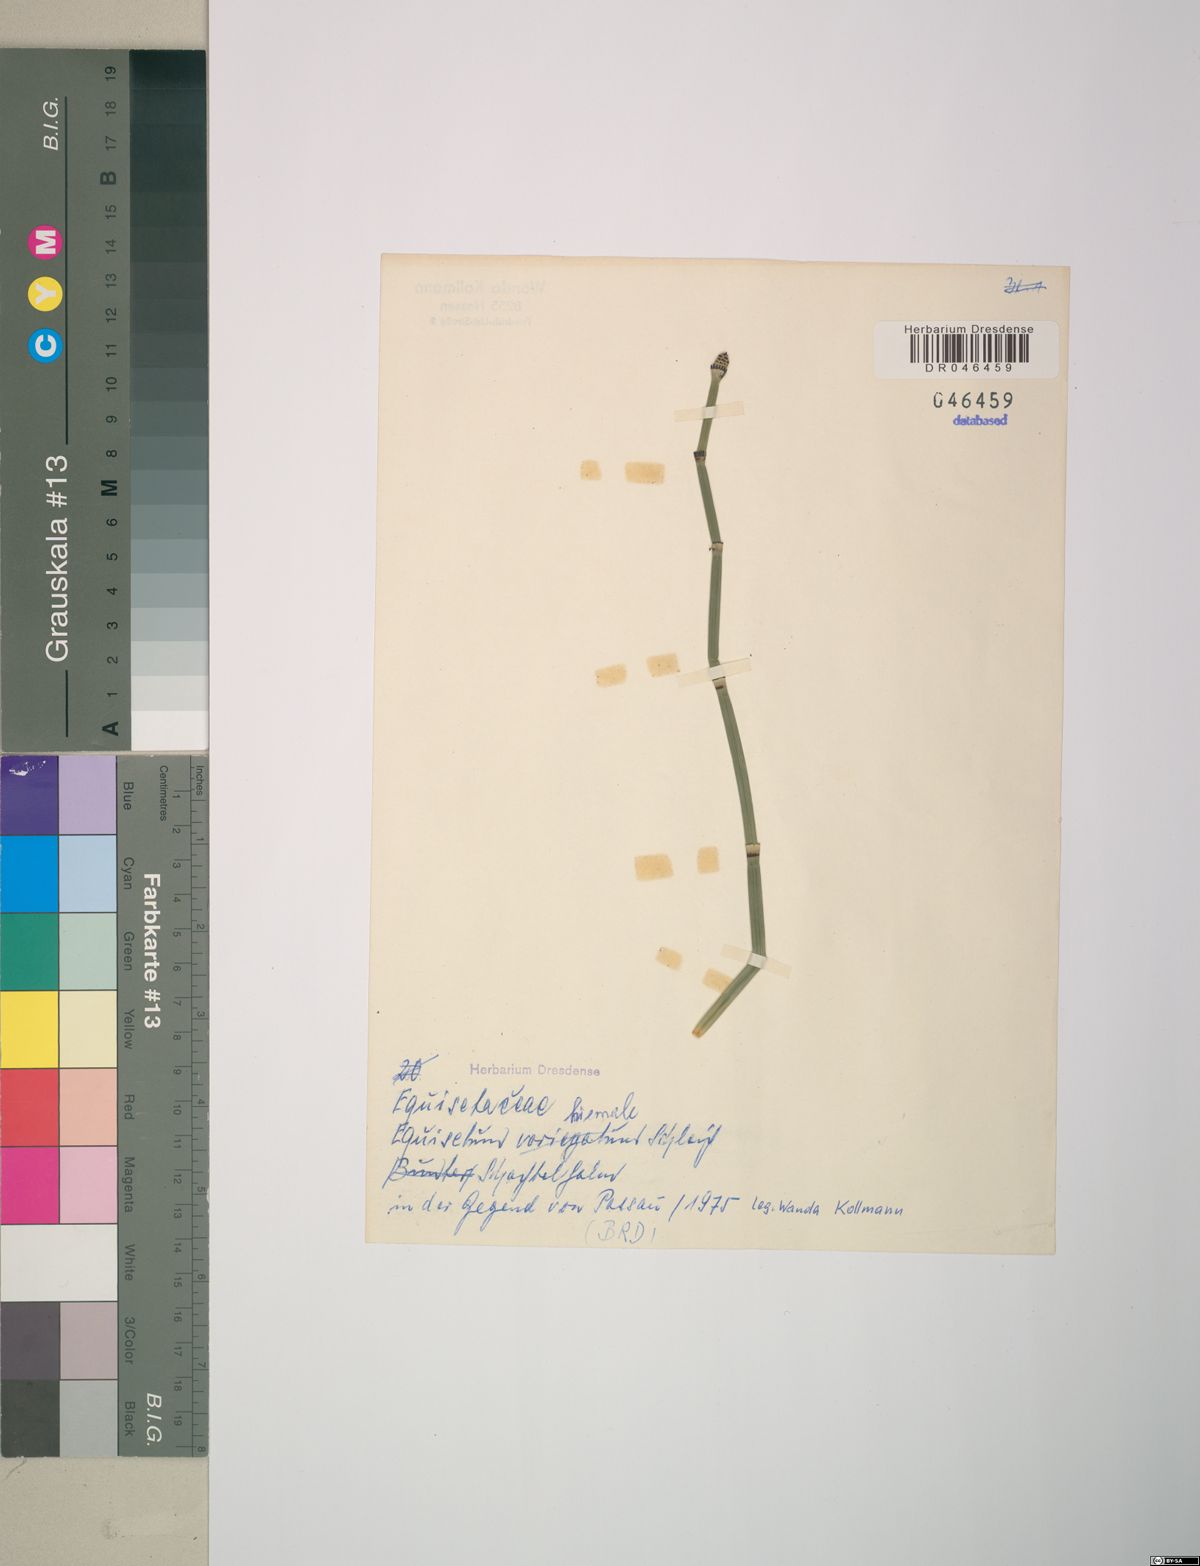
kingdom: Plantae
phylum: Tracheophyta
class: Polypodiopsida
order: Equisetales
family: Equisetaceae
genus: Equisetum
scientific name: Equisetum hyemale
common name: Rough horsetail
